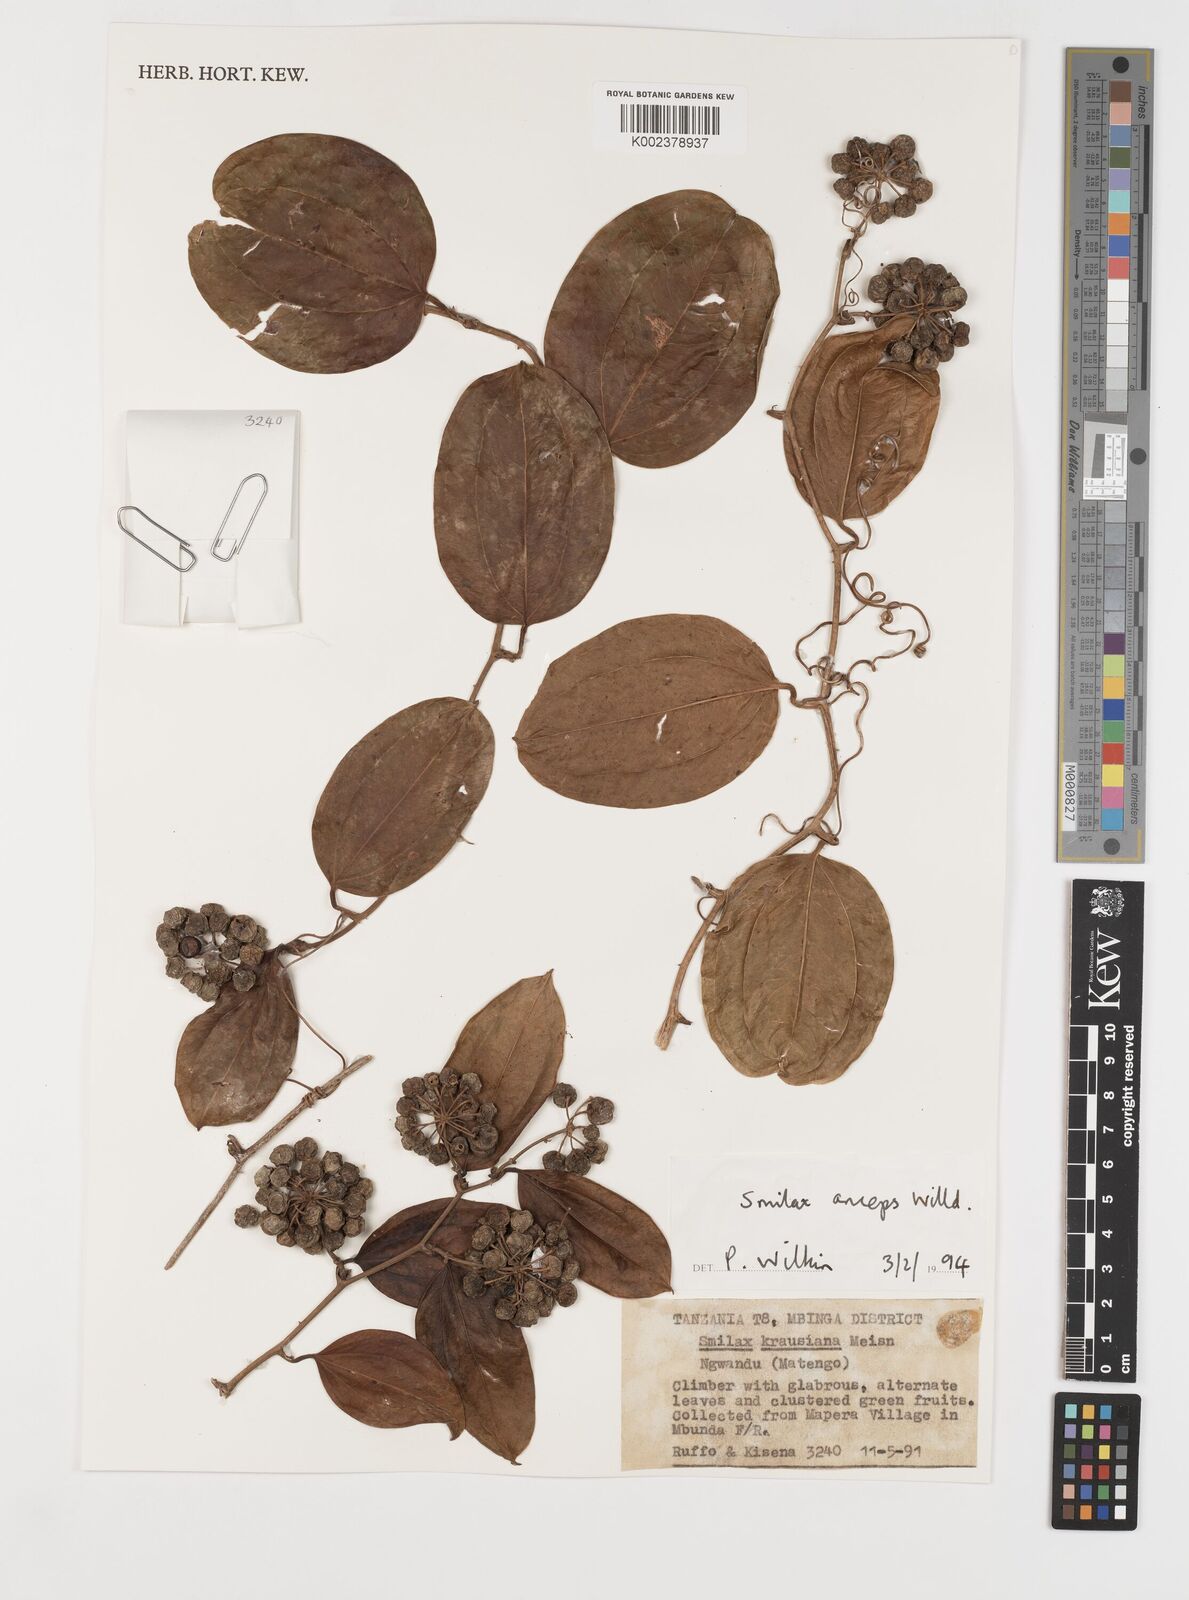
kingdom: Plantae
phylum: Tracheophyta
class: Liliopsida
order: Liliales
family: Smilacaceae
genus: Smilax
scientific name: Smilax anceps
